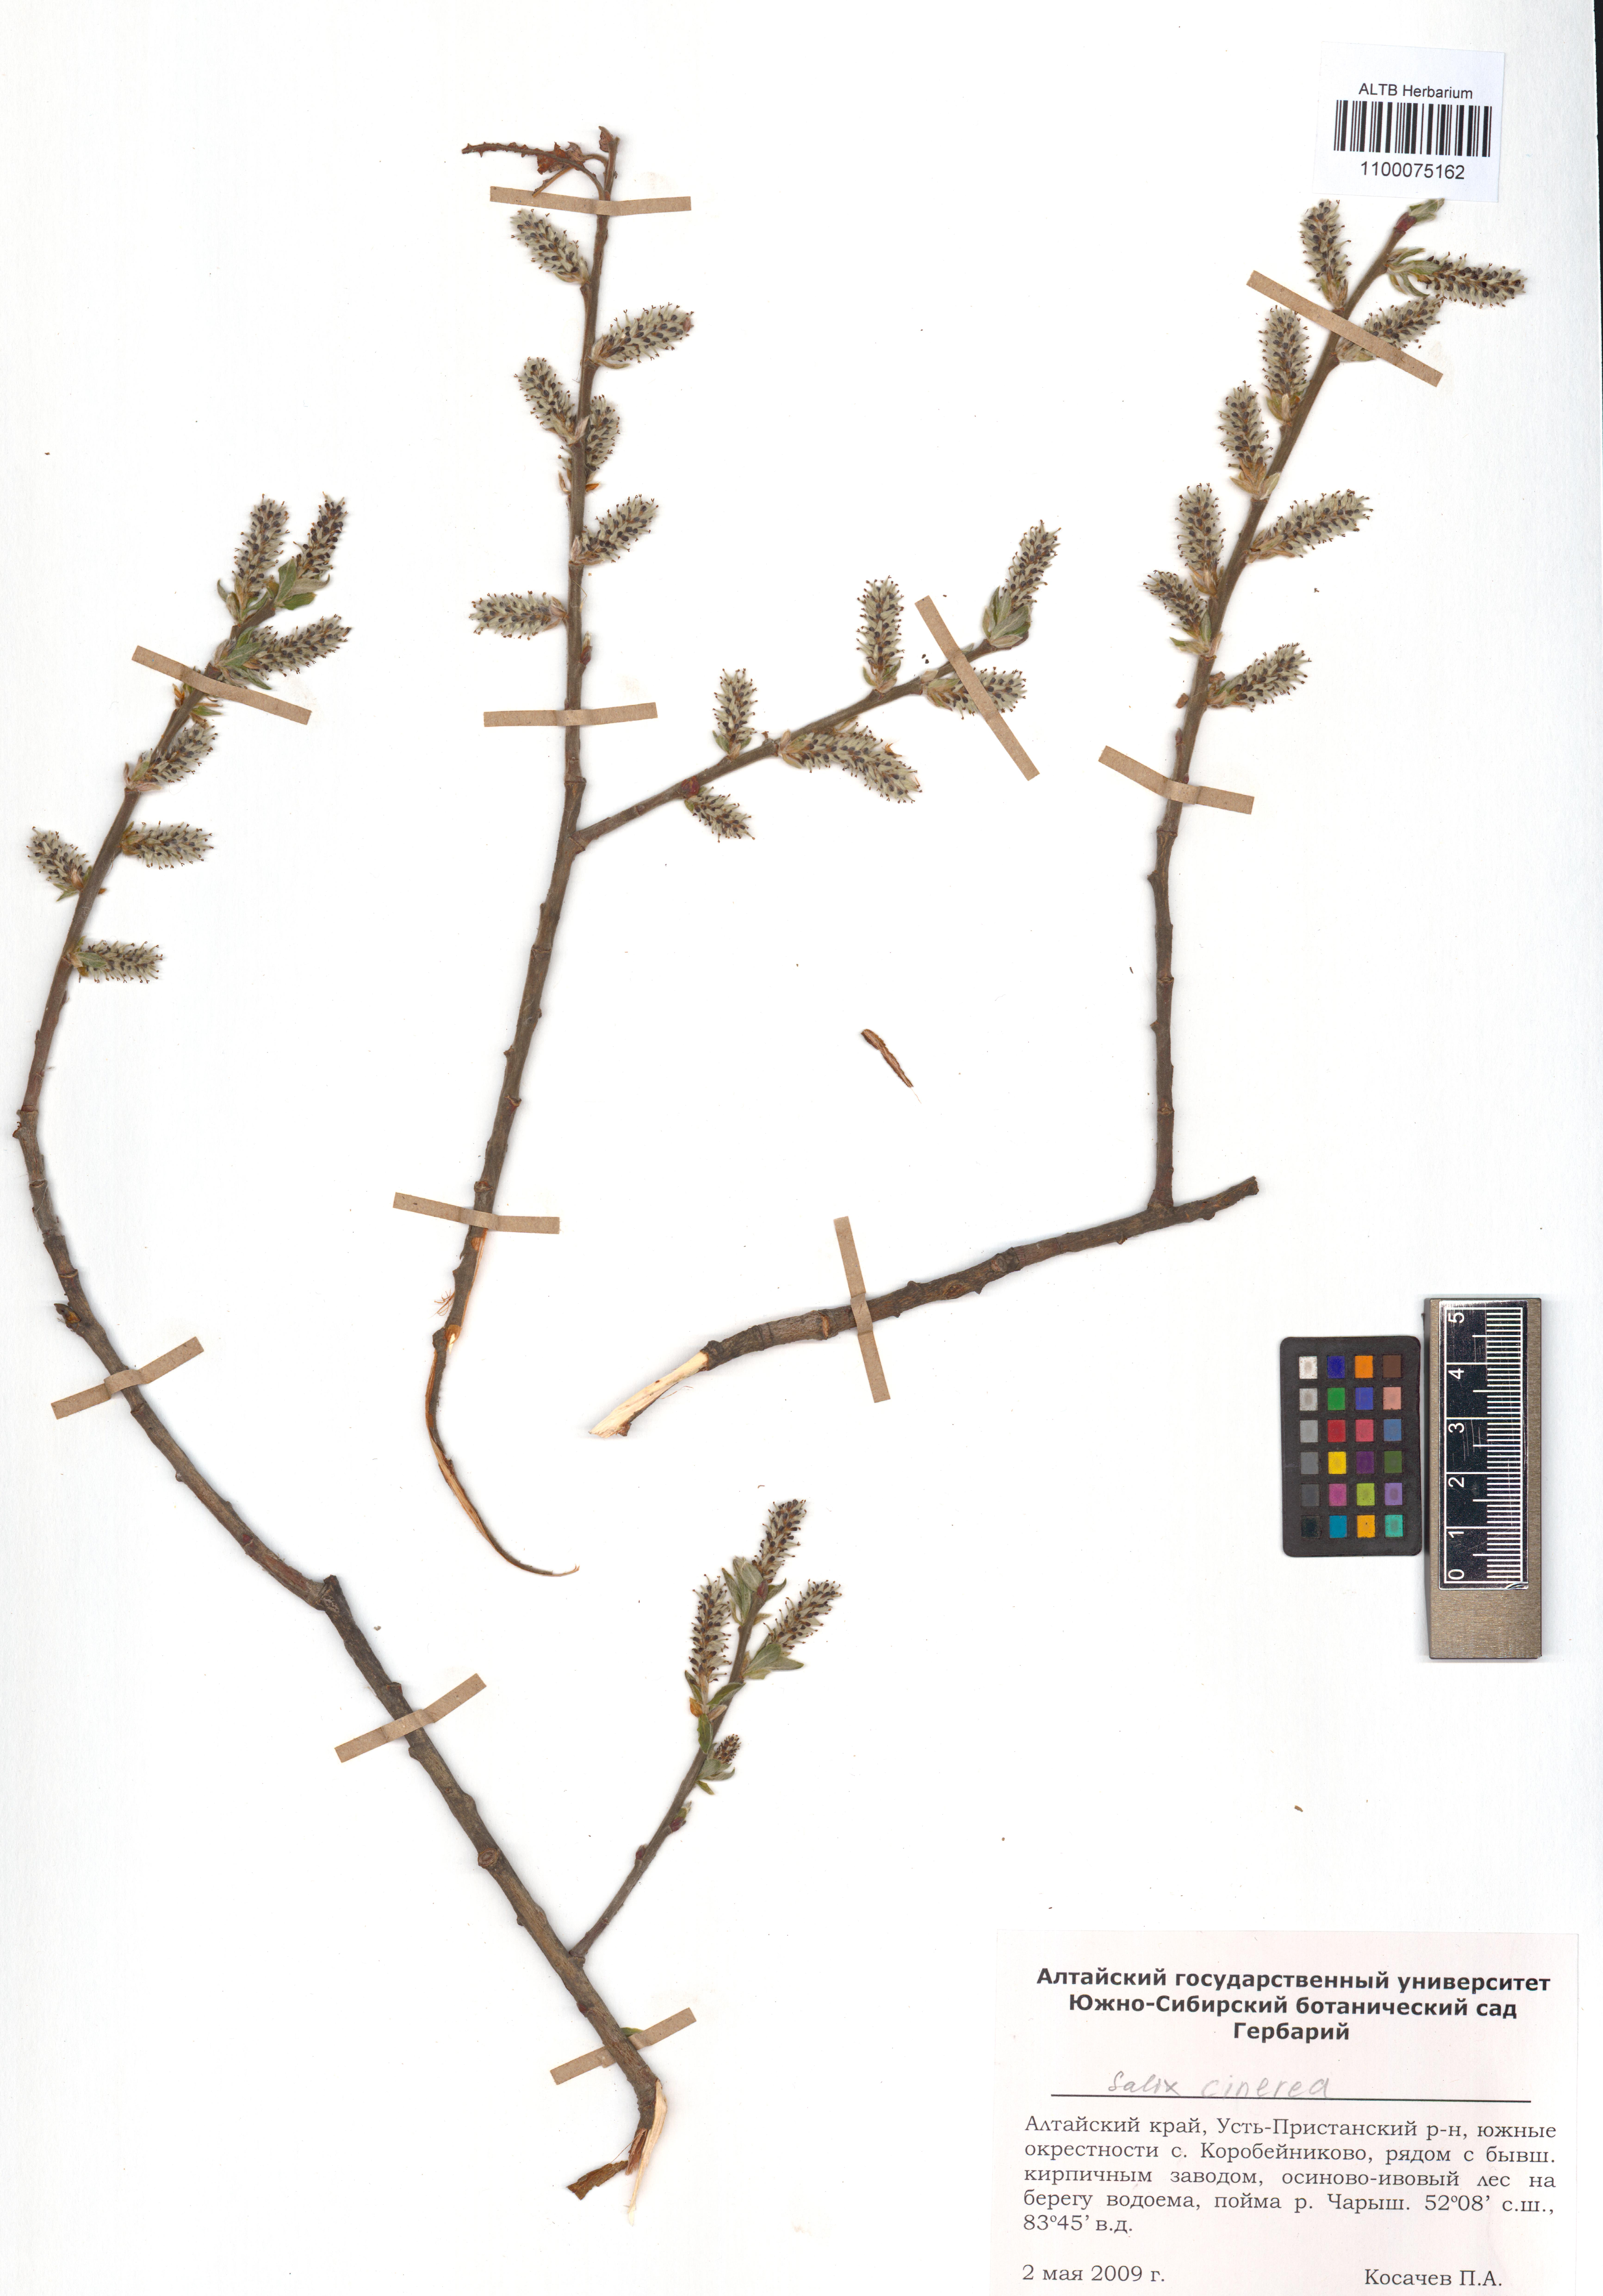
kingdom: Plantae
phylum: Tracheophyta
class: Magnoliopsida
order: Malpighiales
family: Salicaceae
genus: Salix
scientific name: Salix cinerea
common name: Common sallow
